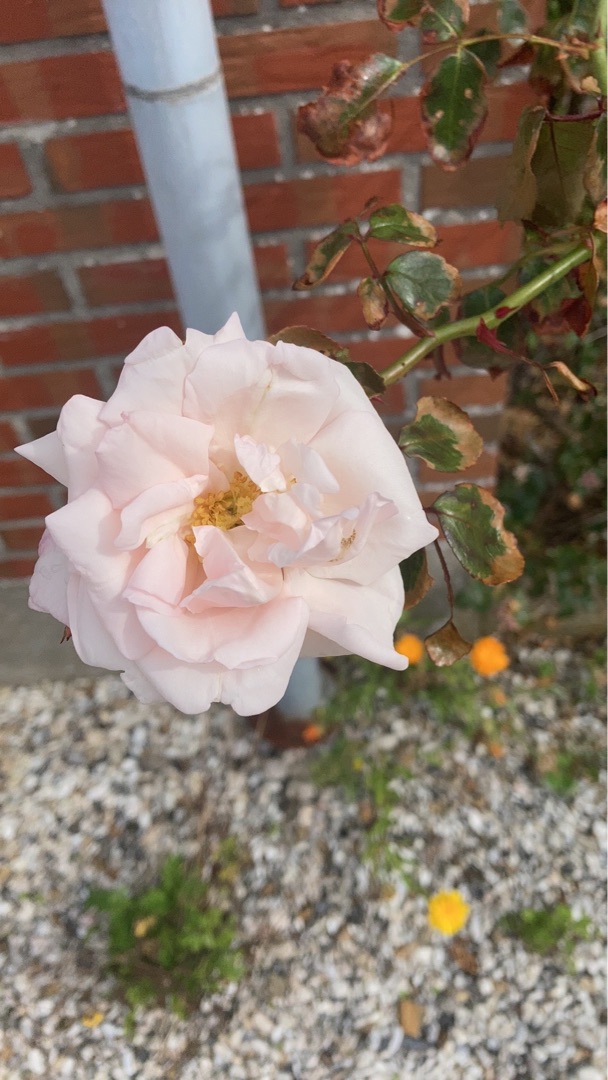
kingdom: Plantae
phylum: Tracheophyta
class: Magnoliopsida
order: Rosales
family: Rosaceae
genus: Rosa
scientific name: Rosa
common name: Roseslægten
